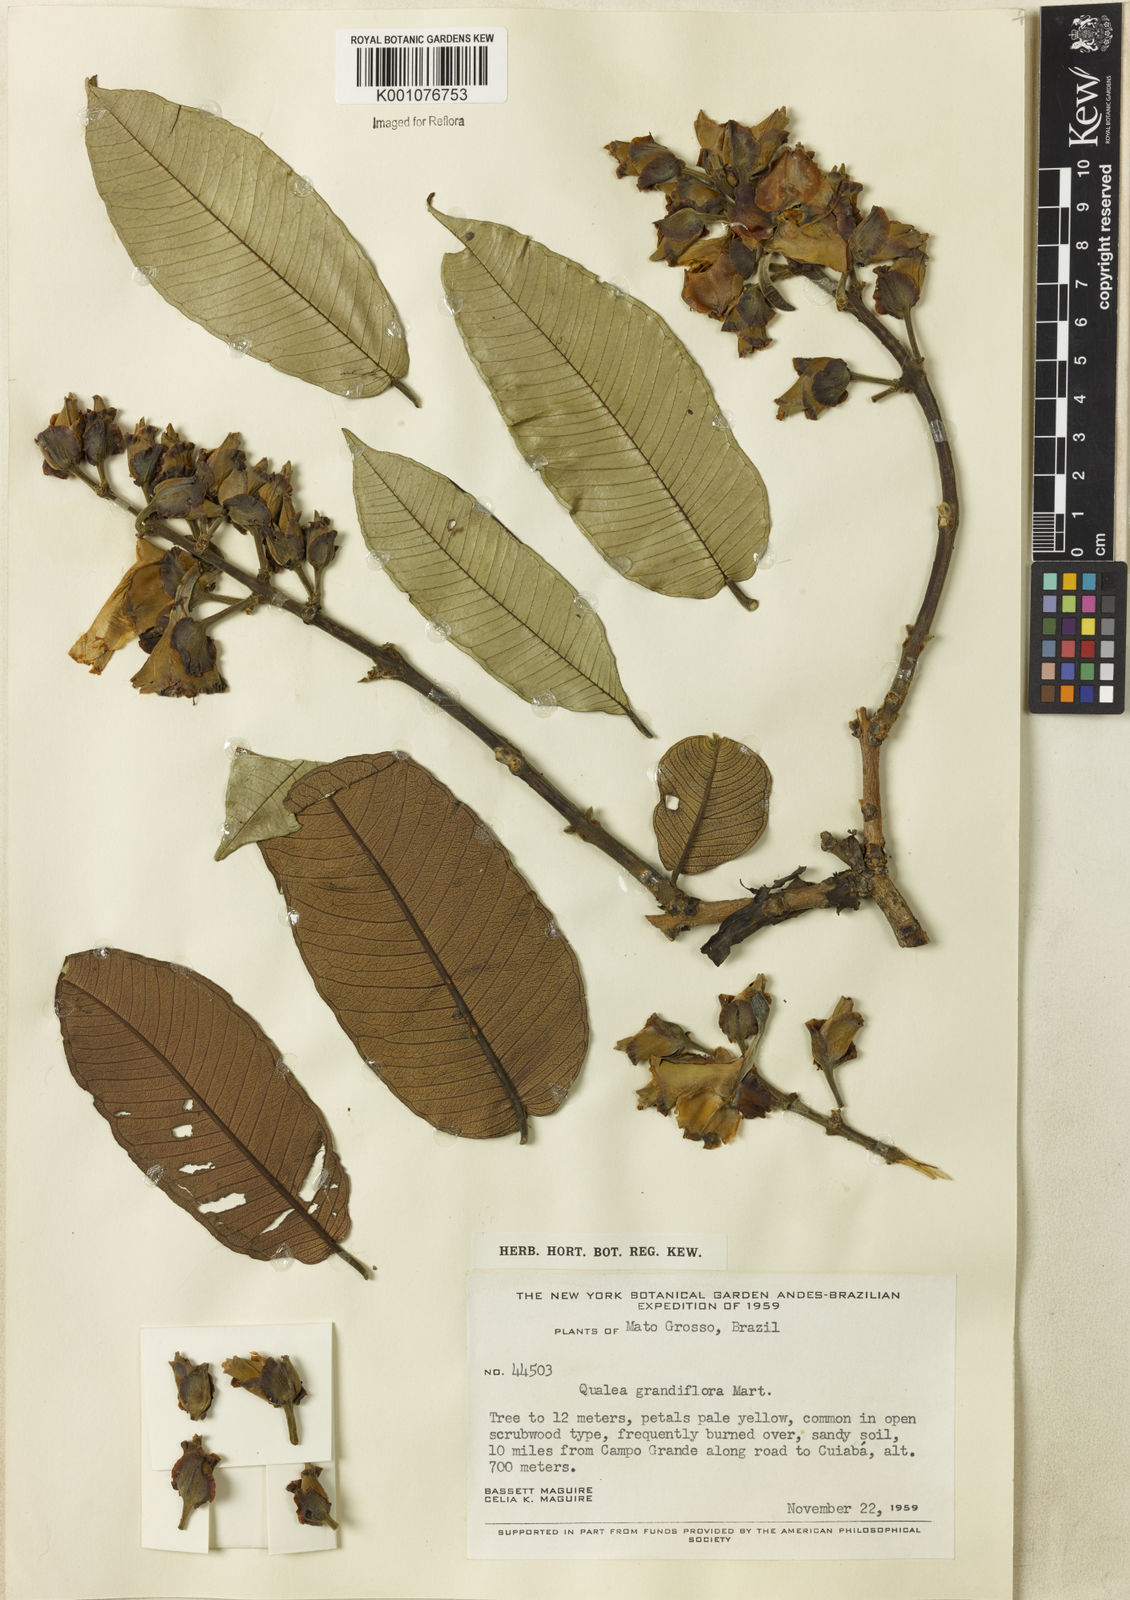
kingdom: Plantae
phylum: Tracheophyta
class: Magnoliopsida
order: Myrtales
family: Vochysiaceae
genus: Qualea
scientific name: Qualea grandiflora
